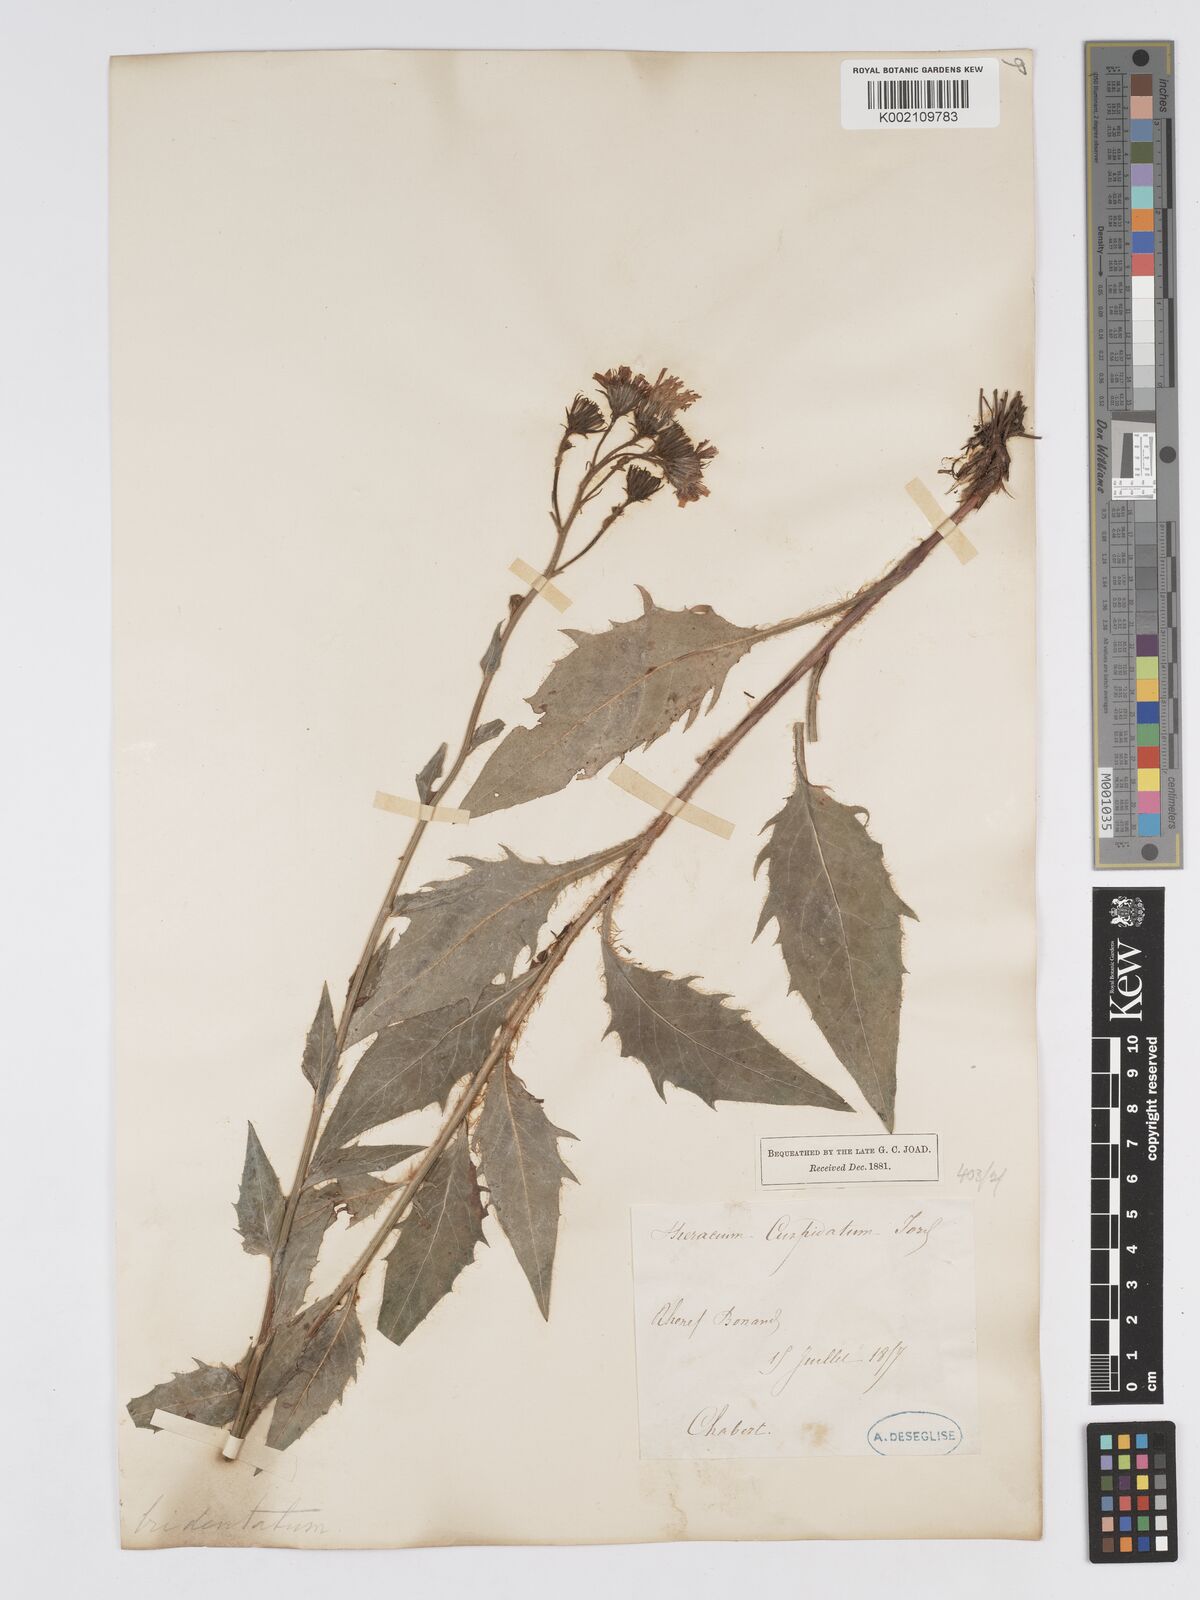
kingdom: Plantae
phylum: Tracheophyta
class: Magnoliopsida
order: Asterales
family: Asteraceae
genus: Hieracium
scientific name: Hieracium australe
